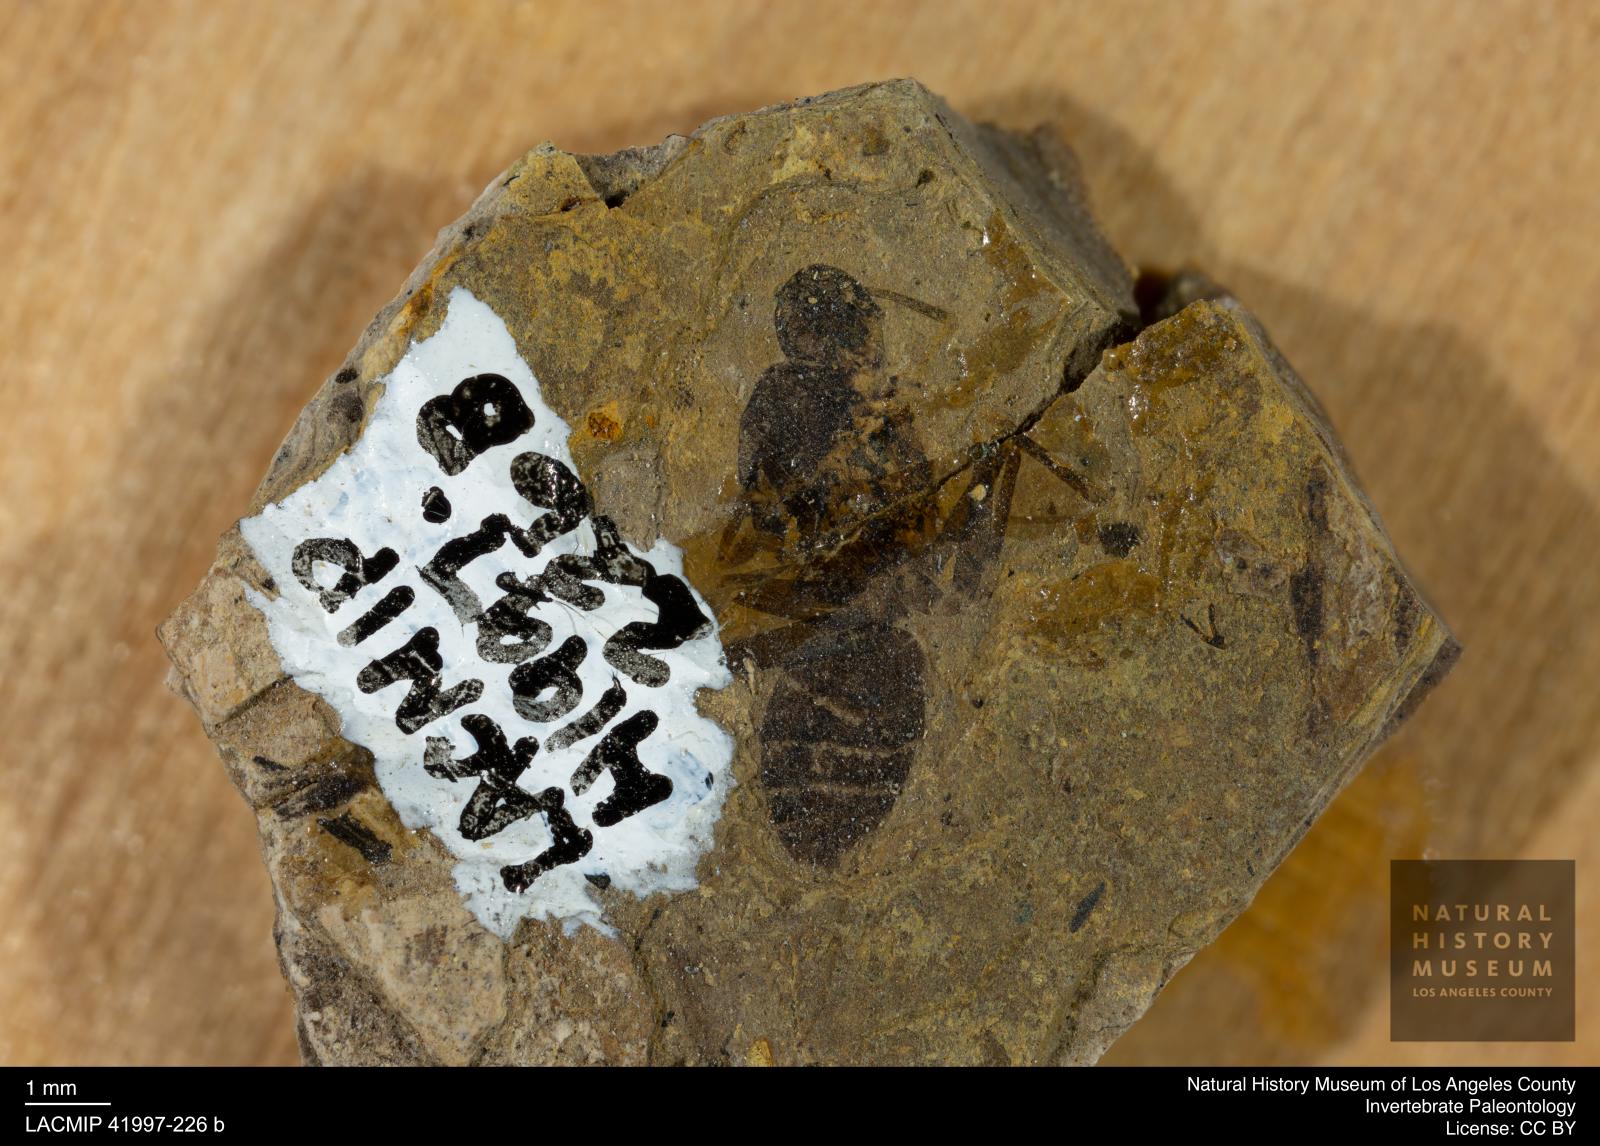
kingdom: Animalia
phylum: Arthropoda
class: Insecta
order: Hymenoptera
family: Formicidae
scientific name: Formicidae
